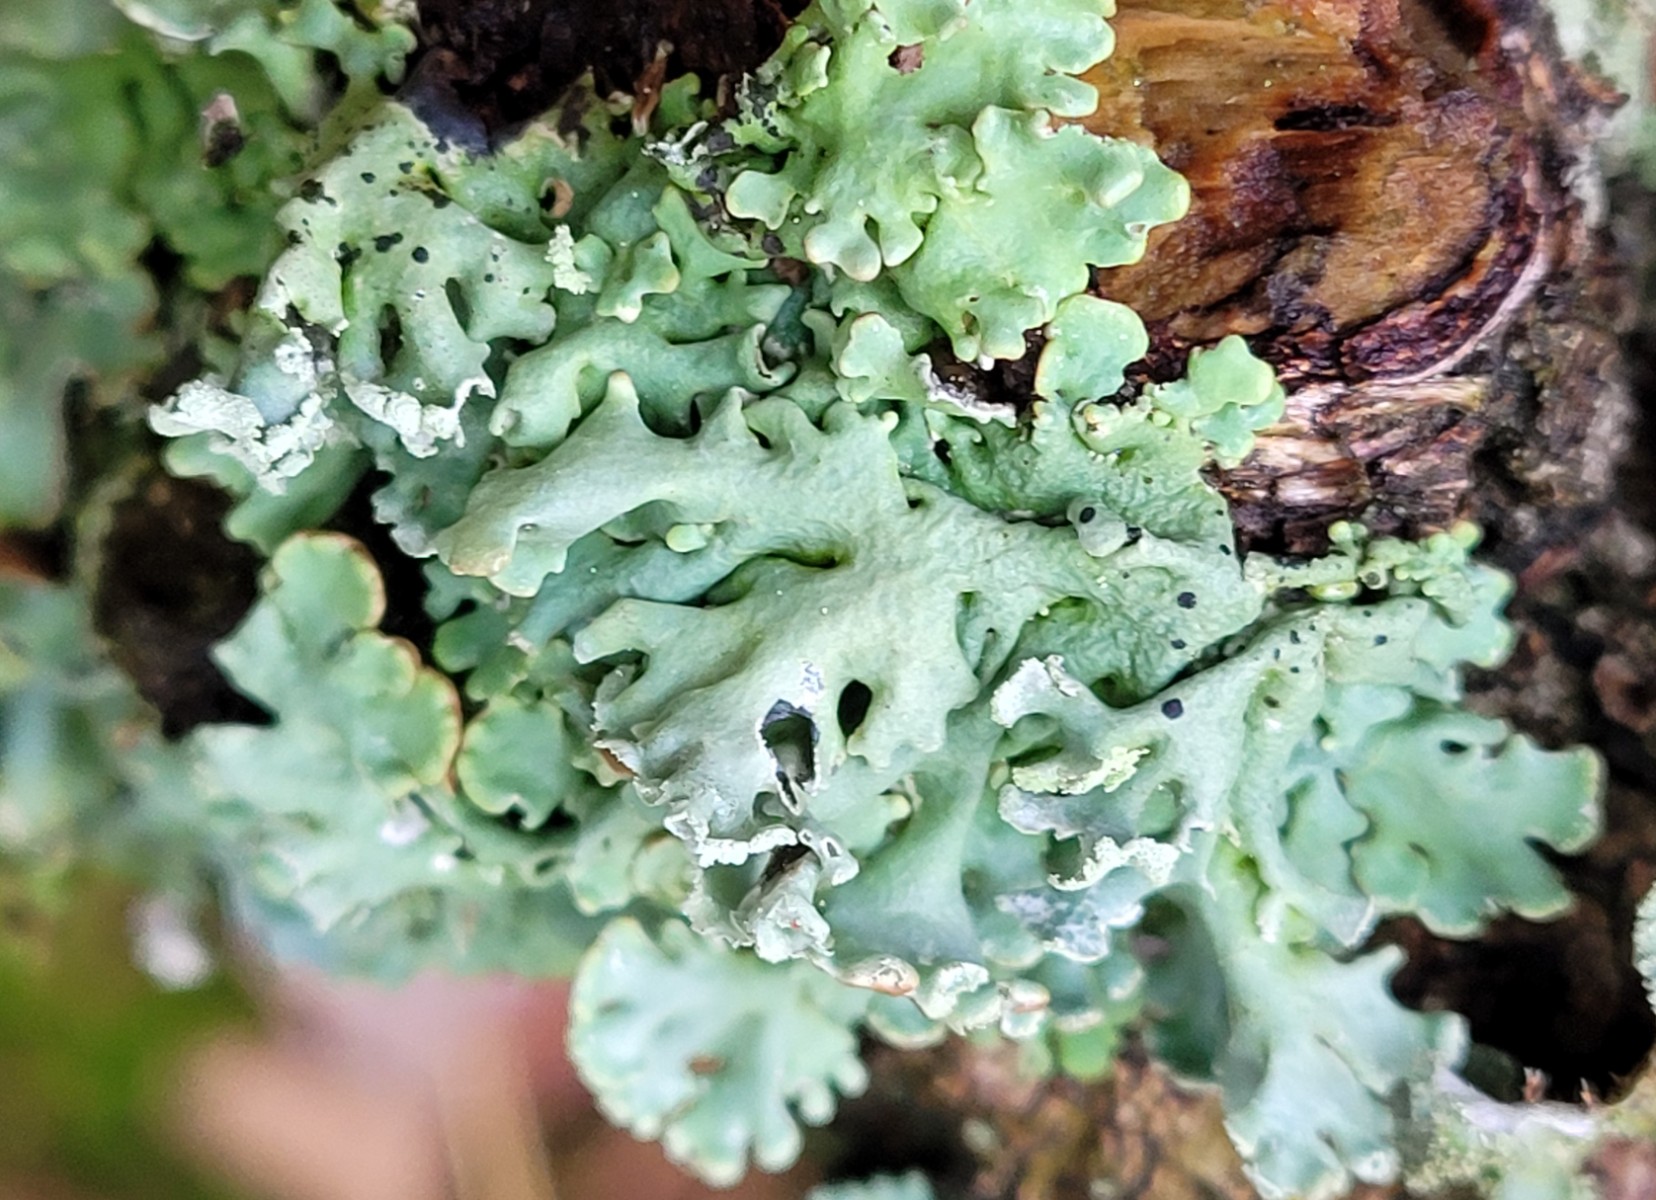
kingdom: Fungi
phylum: Ascomycota
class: Lecanoromycetes
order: Lecanorales
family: Parmeliaceae
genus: Hypogymnia
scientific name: Hypogymnia physodes
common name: almindelig kvistlav
